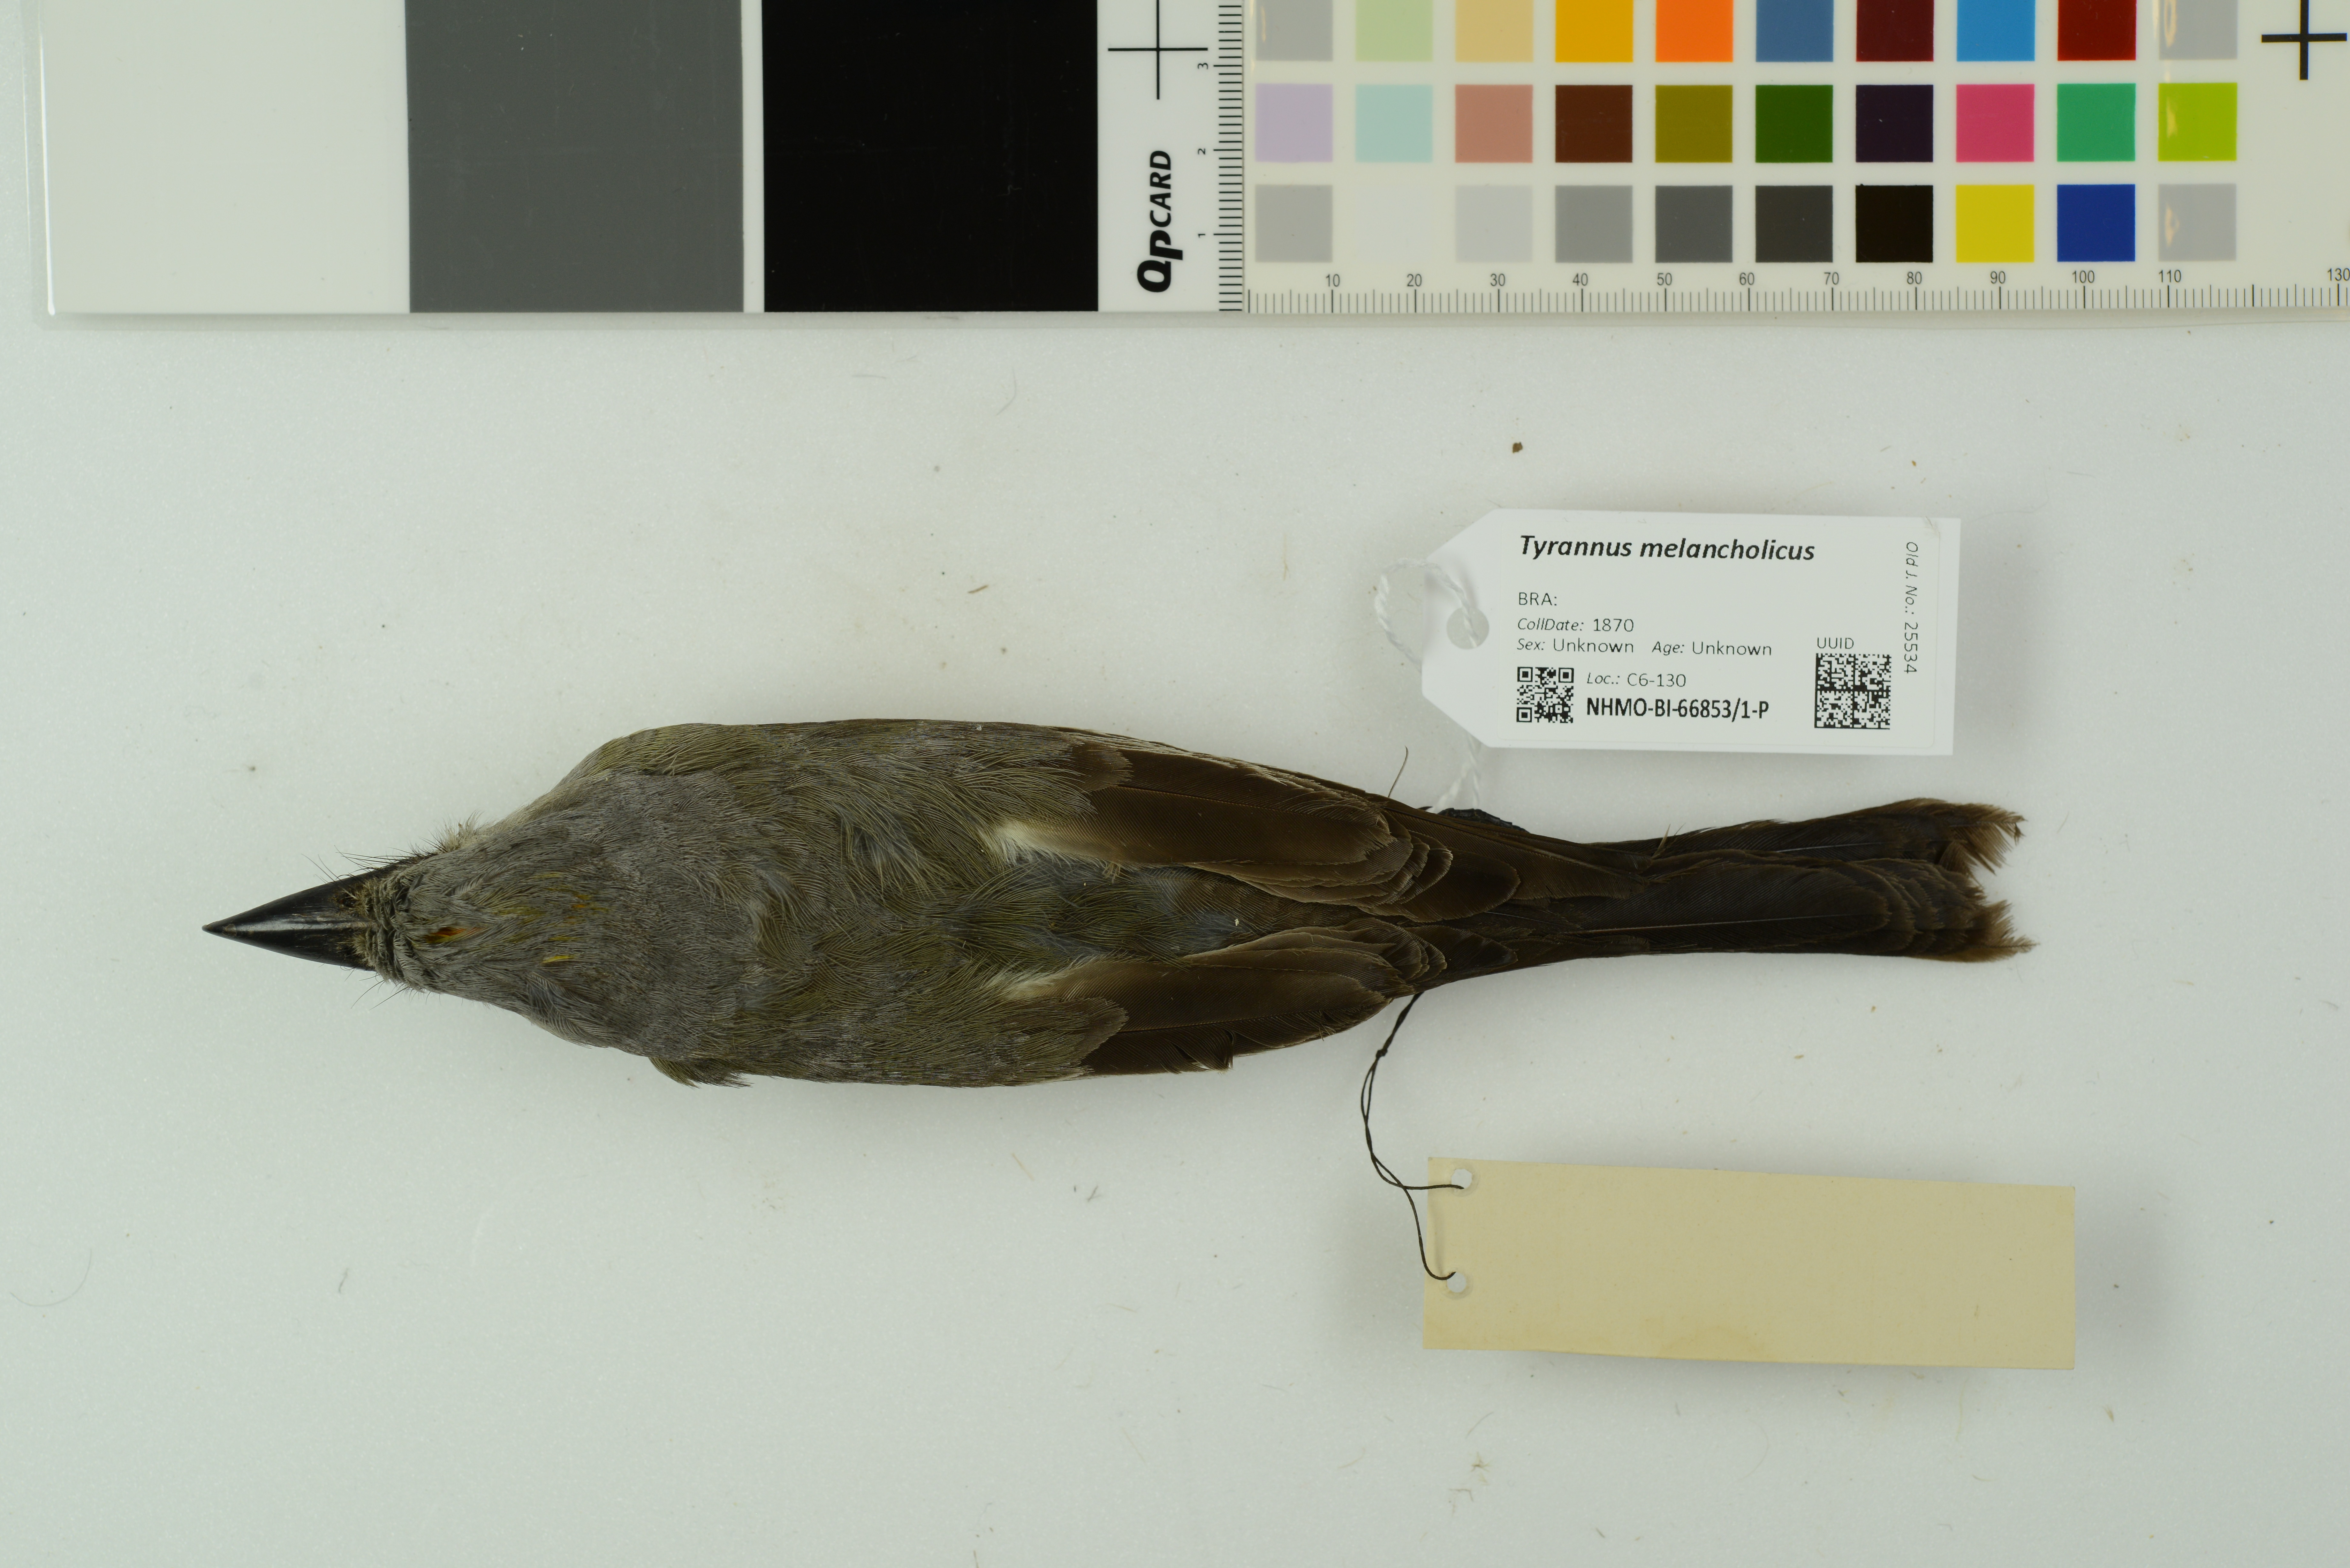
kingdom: Animalia
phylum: Chordata
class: Aves
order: Passeriformes
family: Tyrannidae
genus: Tyrannus
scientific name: Tyrannus melancholicus
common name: Tropical kingbird
